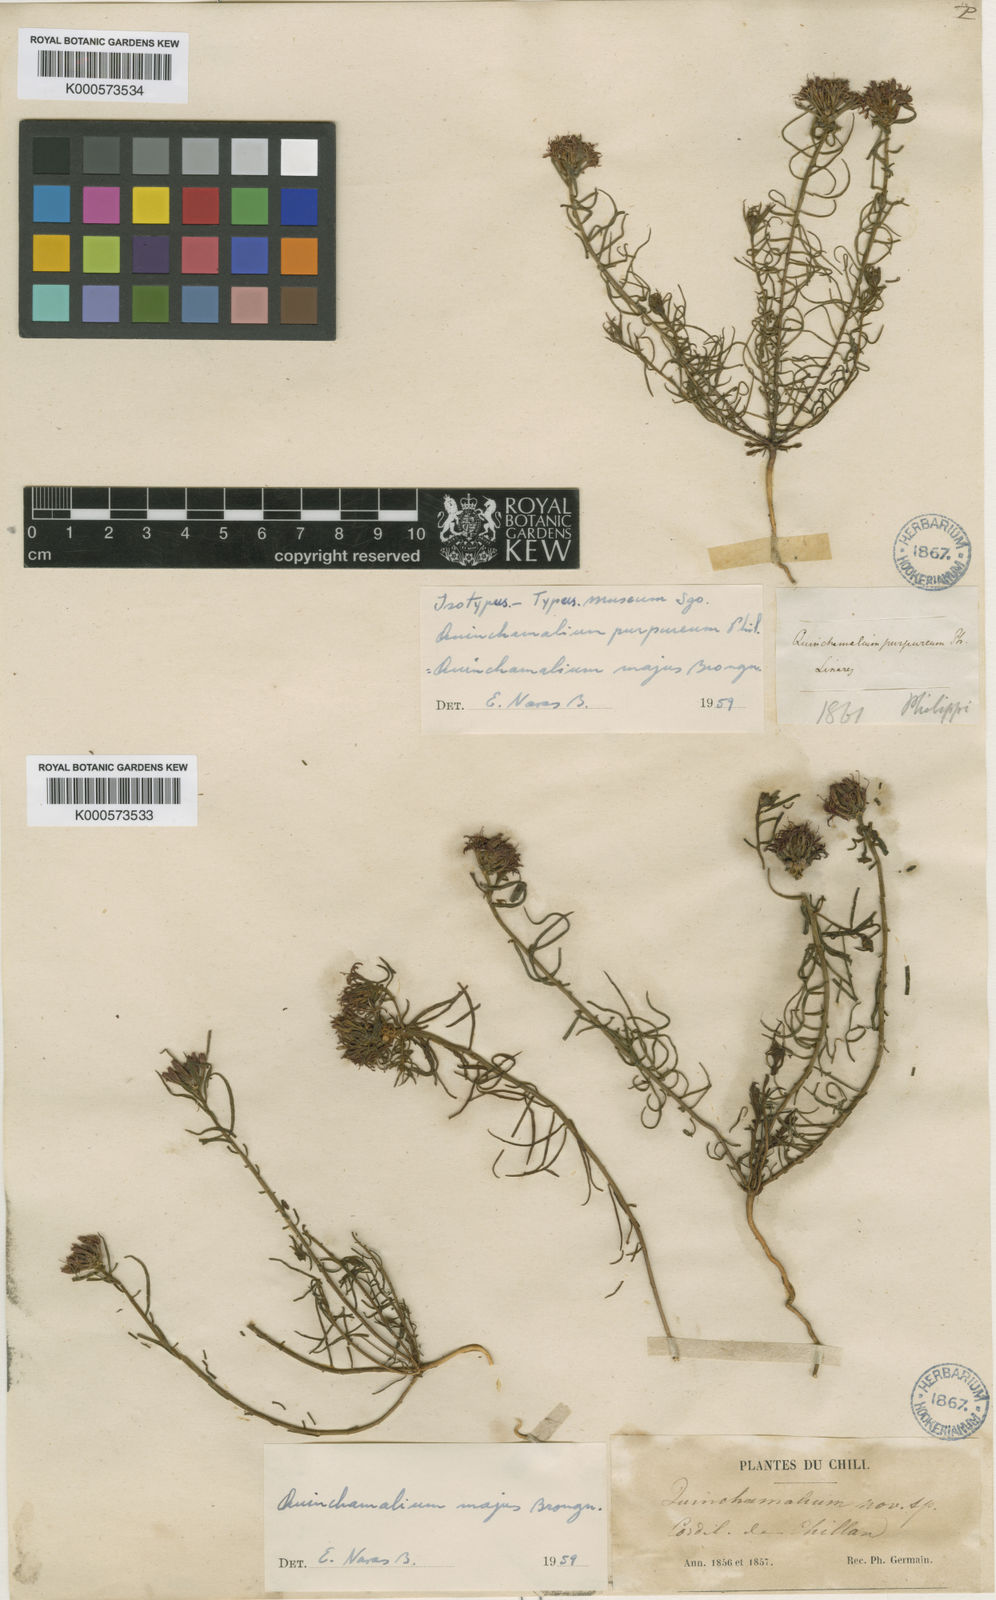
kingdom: Plantae
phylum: Tracheophyta
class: Magnoliopsida
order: Santalales
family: Schoepfiaceae
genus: Quinchamalium
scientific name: Quinchamalium chilense
